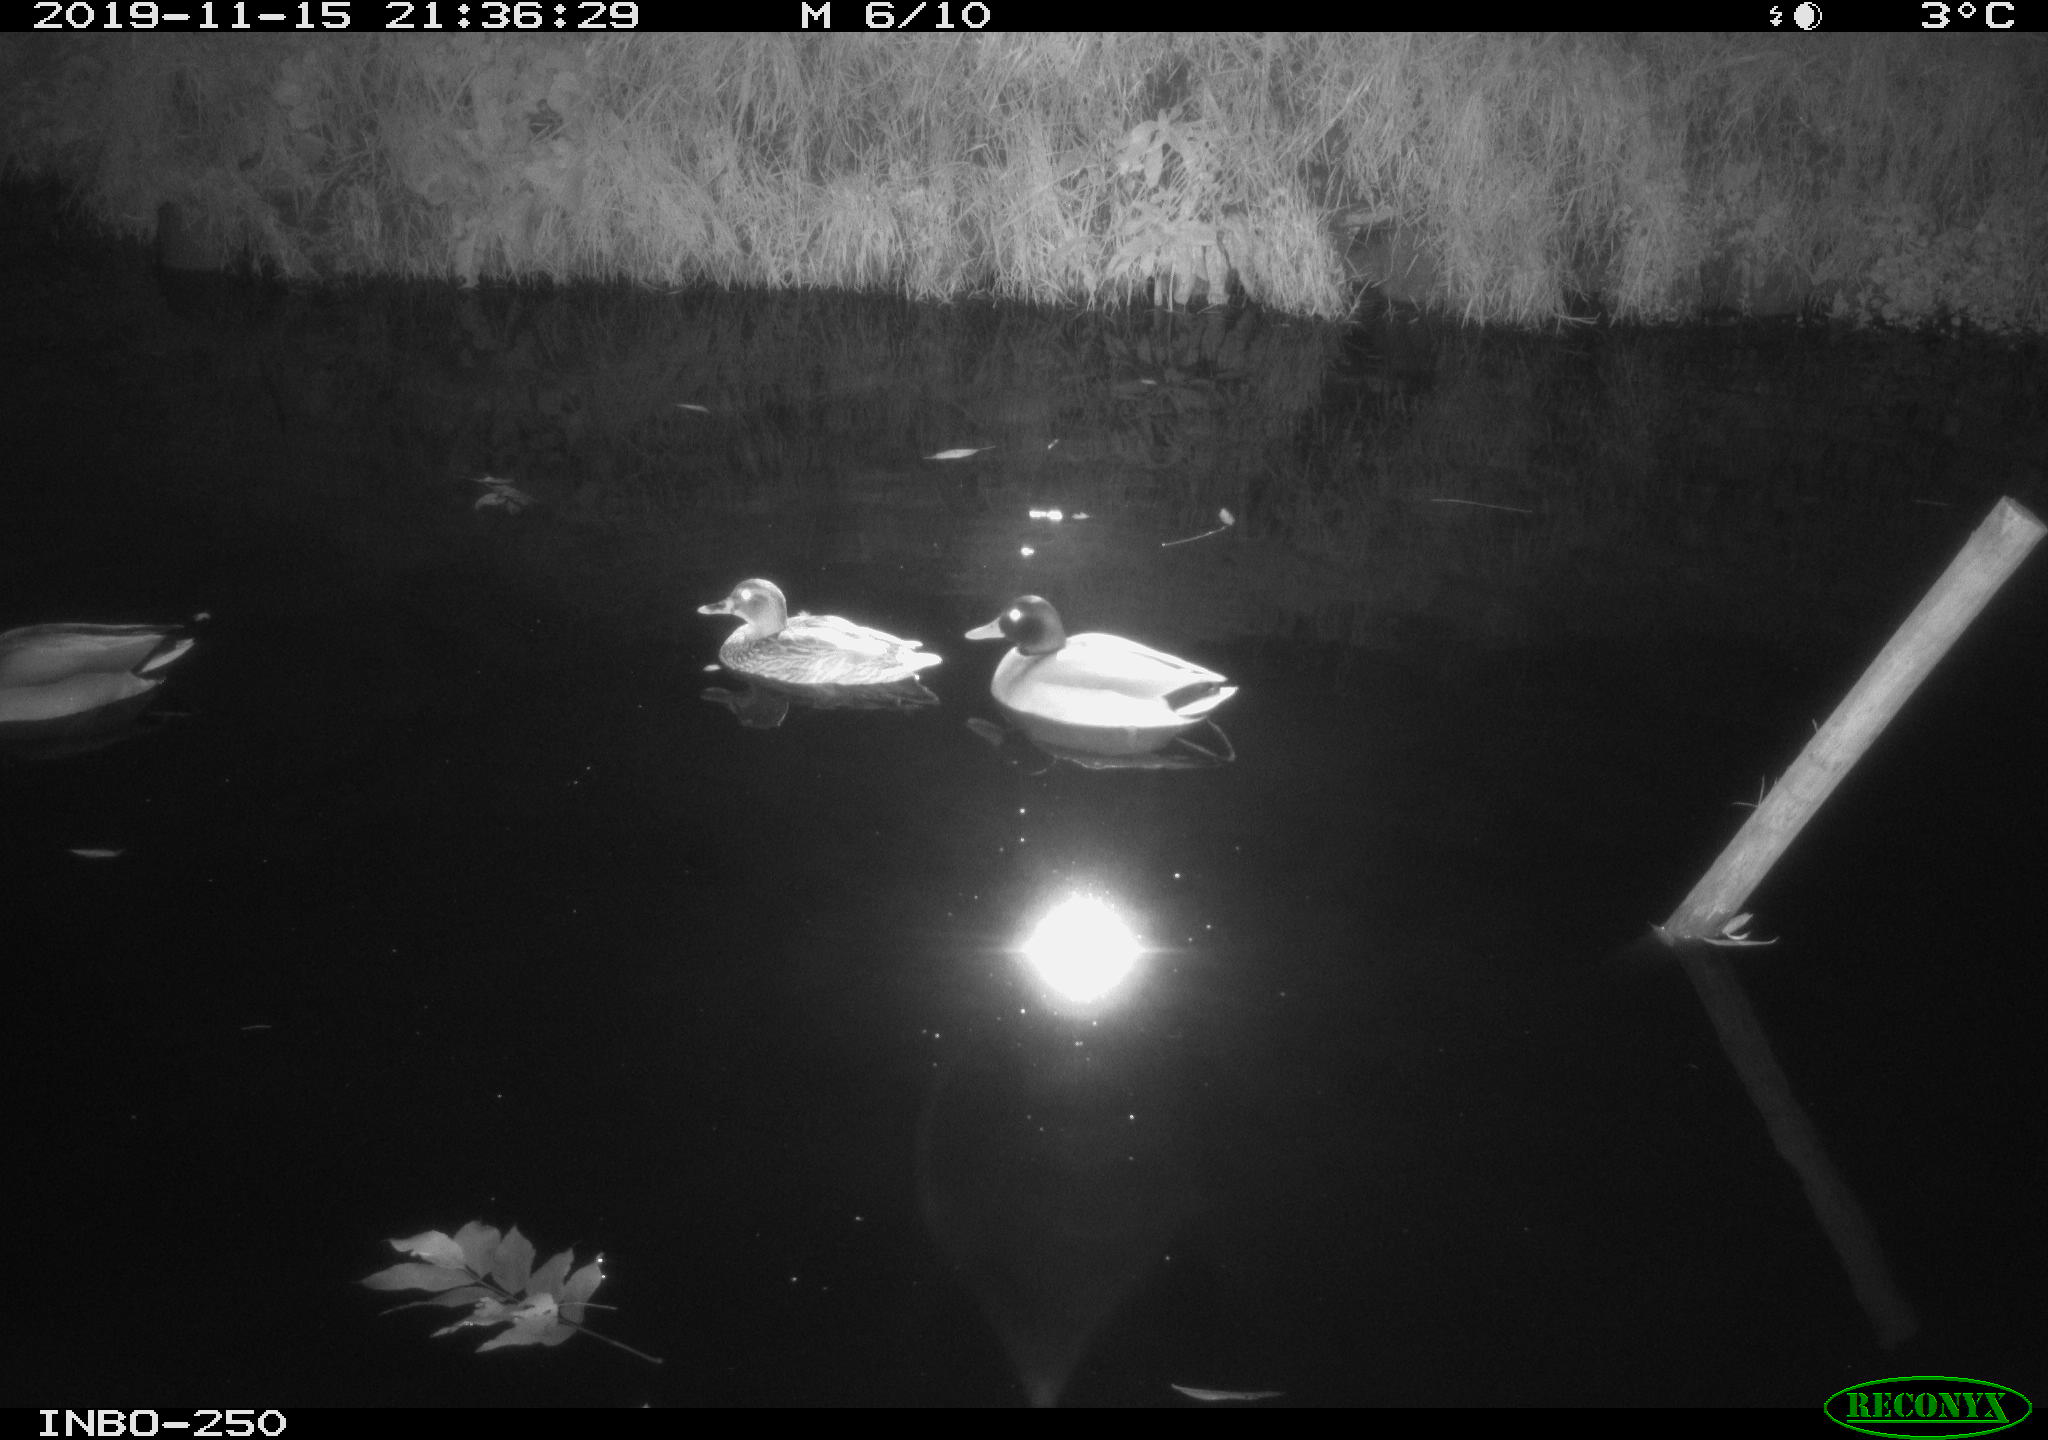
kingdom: Animalia
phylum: Chordata
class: Aves
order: Anseriformes
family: Anatidae
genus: Anas
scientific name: Anas platyrhynchos
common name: Mallard
